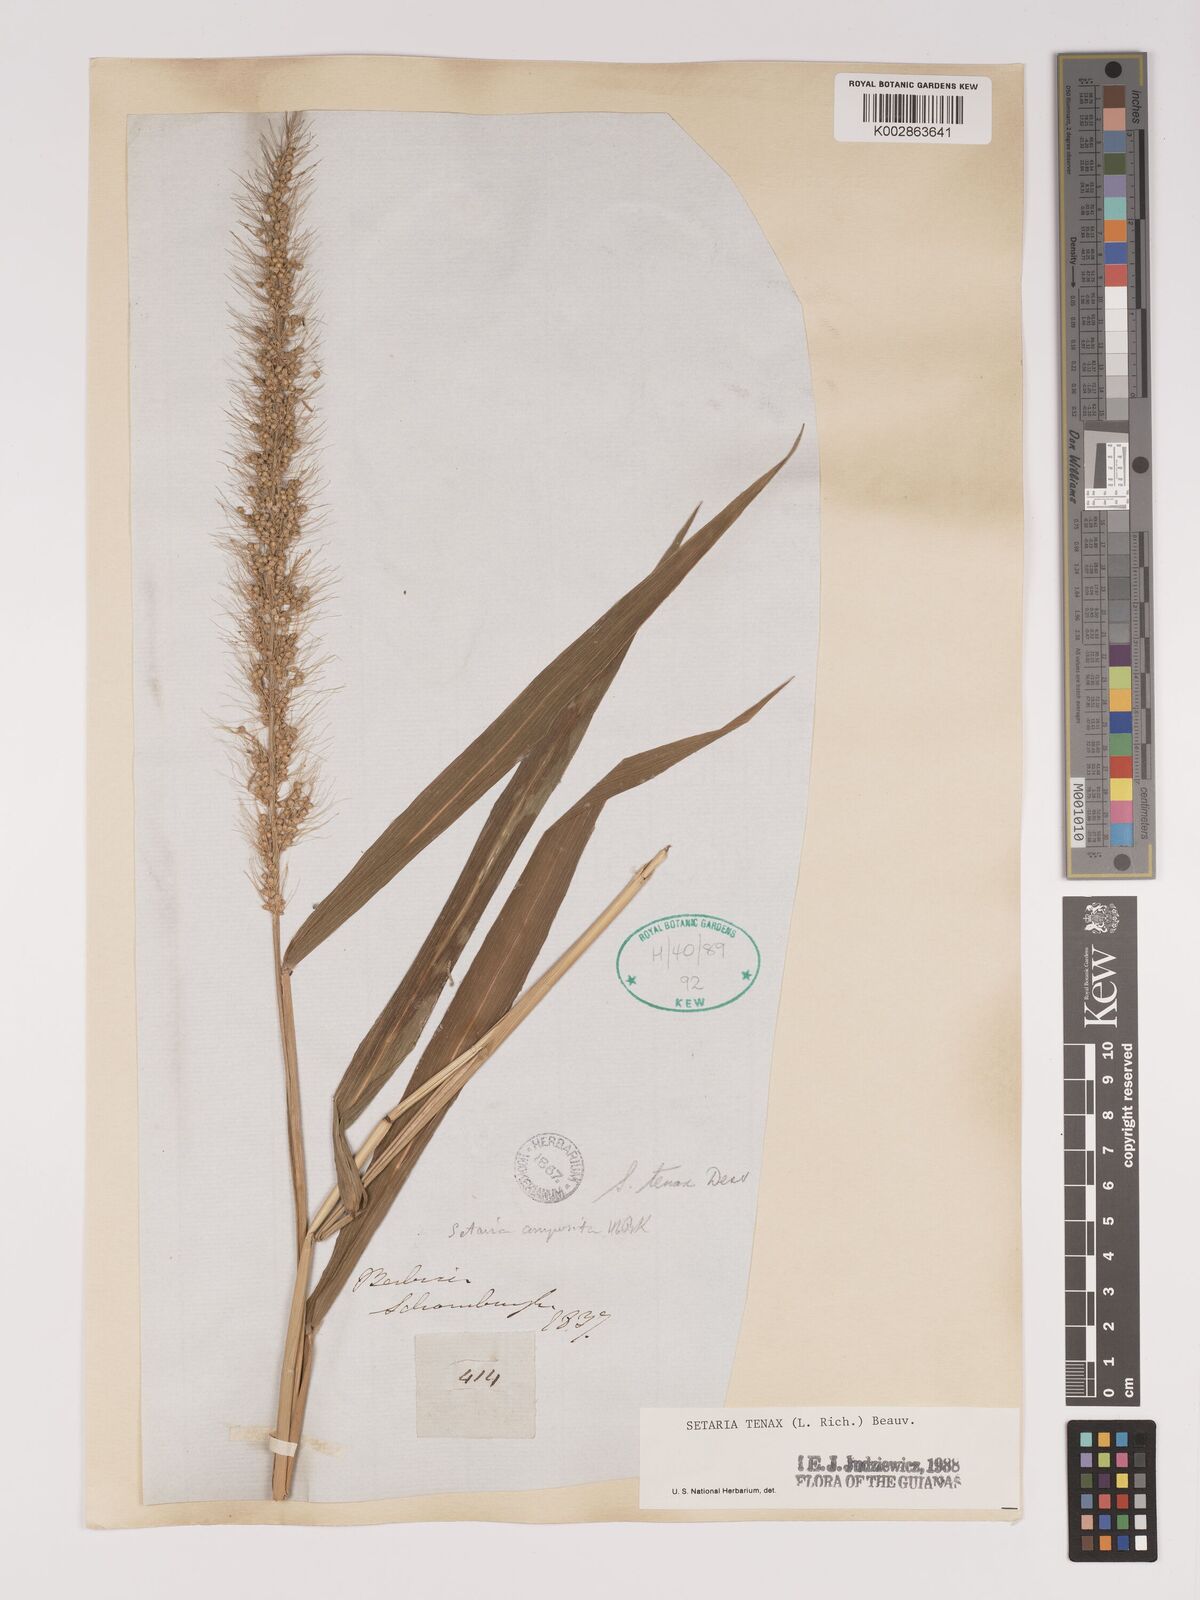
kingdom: Plantae
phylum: Tracheophyta
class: Liliopsida
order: Poales
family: Poaceae
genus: Setaria
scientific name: Setaria tenax
